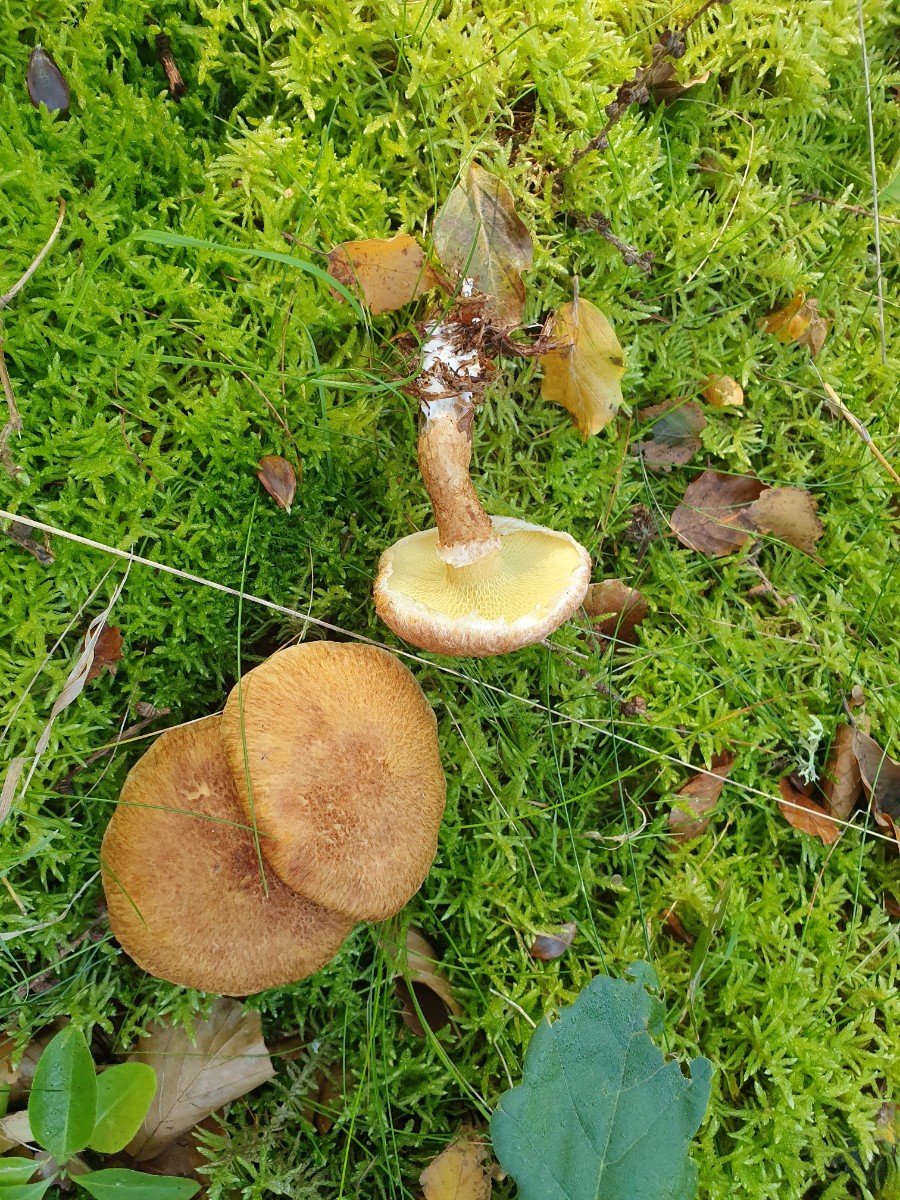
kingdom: Fungi
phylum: Basidiomycota
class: Agaricomycetes
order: Boletales
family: Suillaceae
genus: Suillus
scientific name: Suillus cavipes
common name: hulstokket slimrørhat
